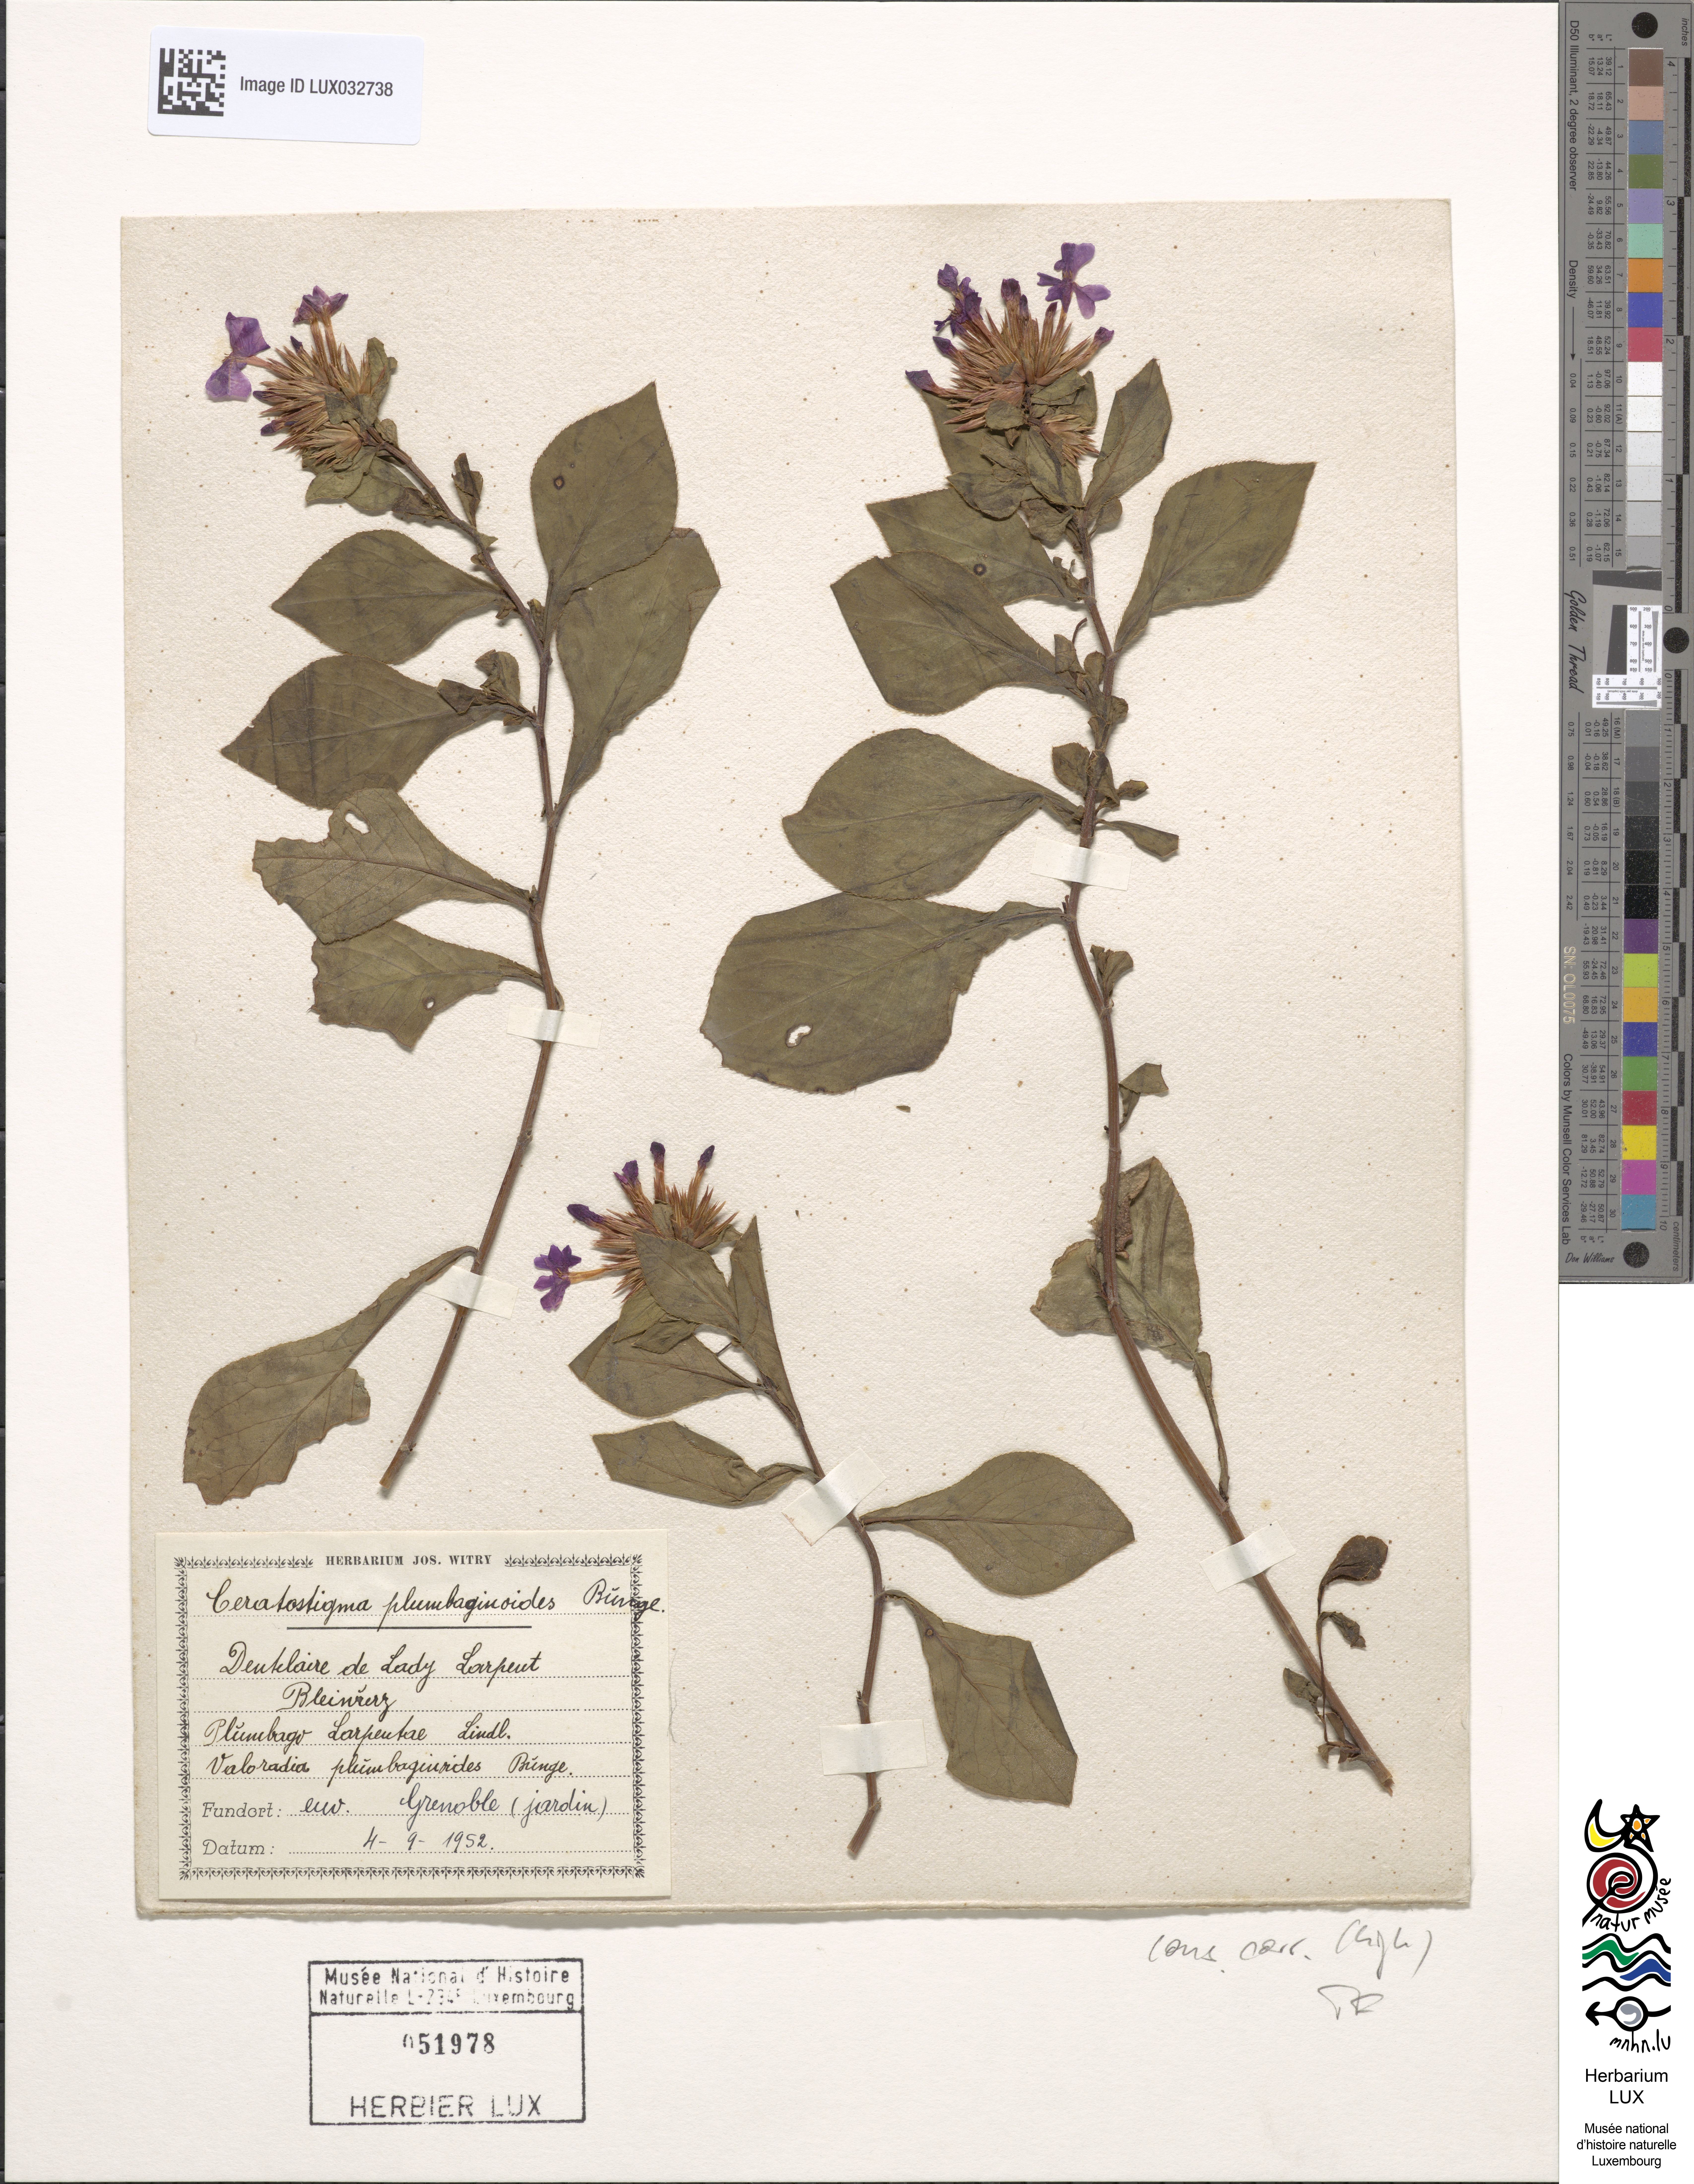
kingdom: Plantae
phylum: Tracheophyta
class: Magnoliopsida
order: Caryophyllales
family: Plumbaginaceae
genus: Ceratostigma
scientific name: Ceratostigma plumbaginoides
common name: Blue leadwood
